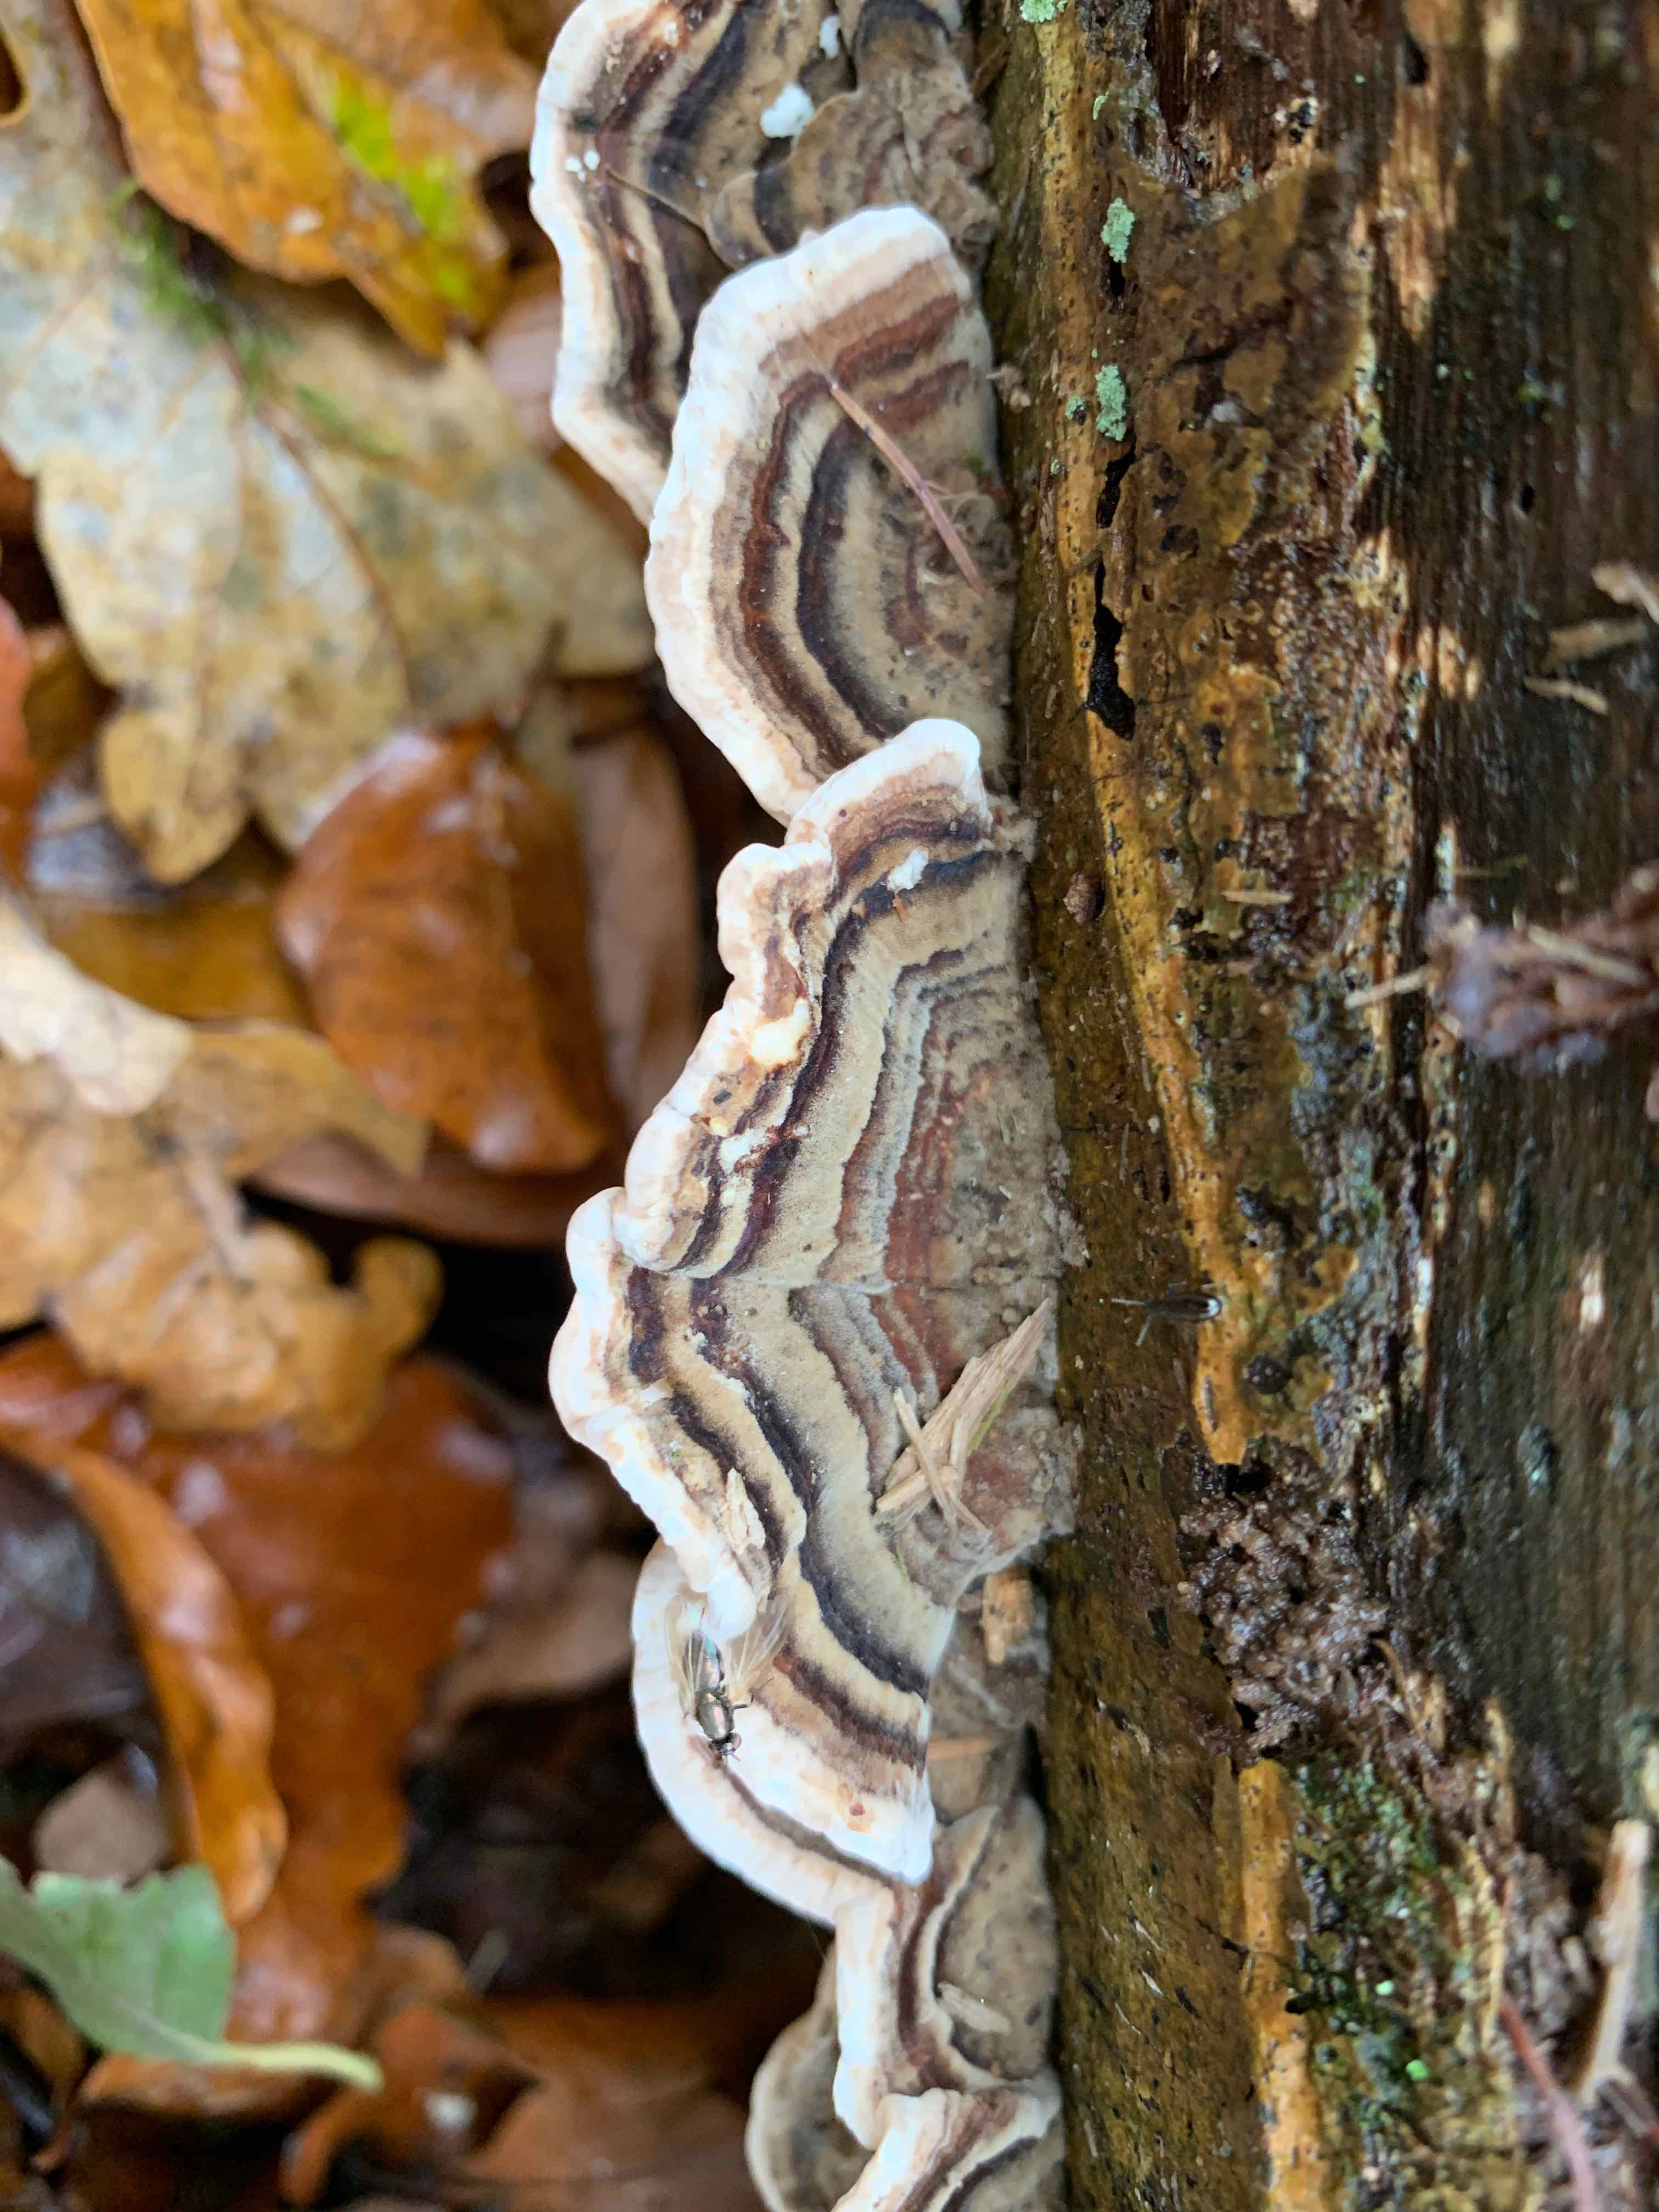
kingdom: Fungi
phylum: Basidiomycota
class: Agaricomycetes
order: Polyporales
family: Polyporaceae
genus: Trametes
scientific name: Trametes versicolor
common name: broget læderporesvamp
